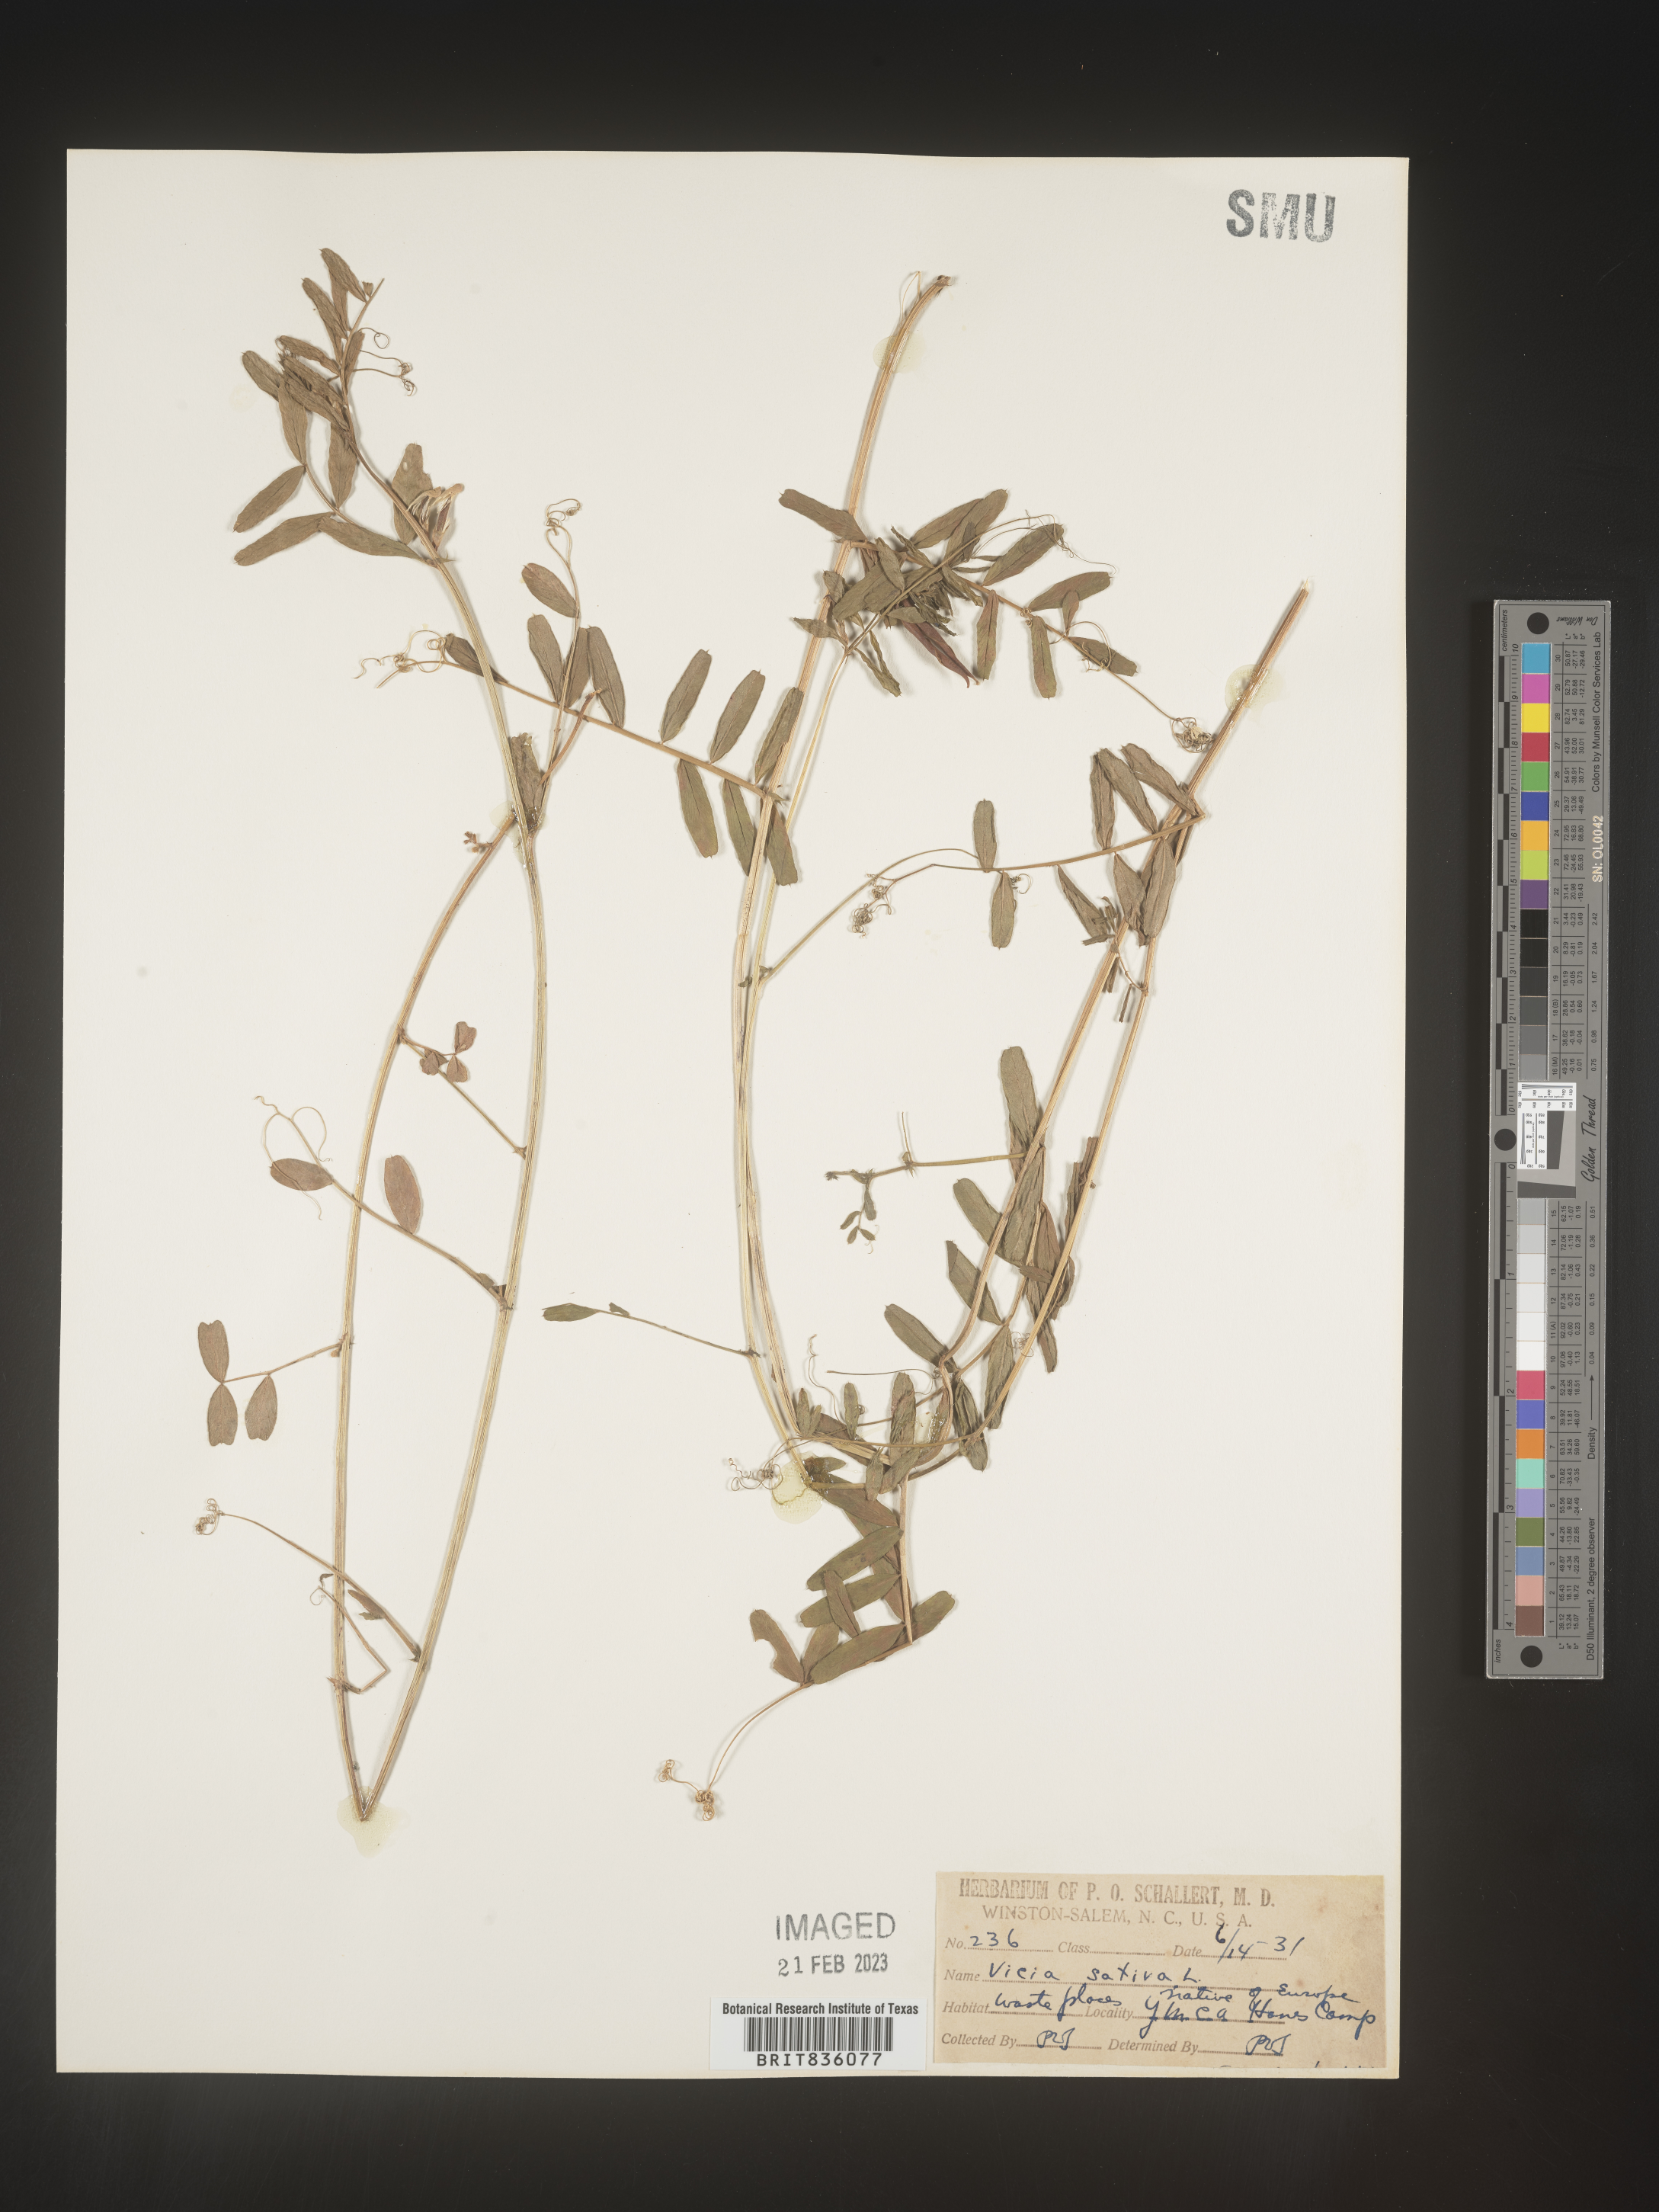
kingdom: Plantae
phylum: Tracheophyta
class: Magnoliopsida
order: Fabales
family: Fabaceae
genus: Vicia
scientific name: Vicia sativa
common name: Garden vetch
